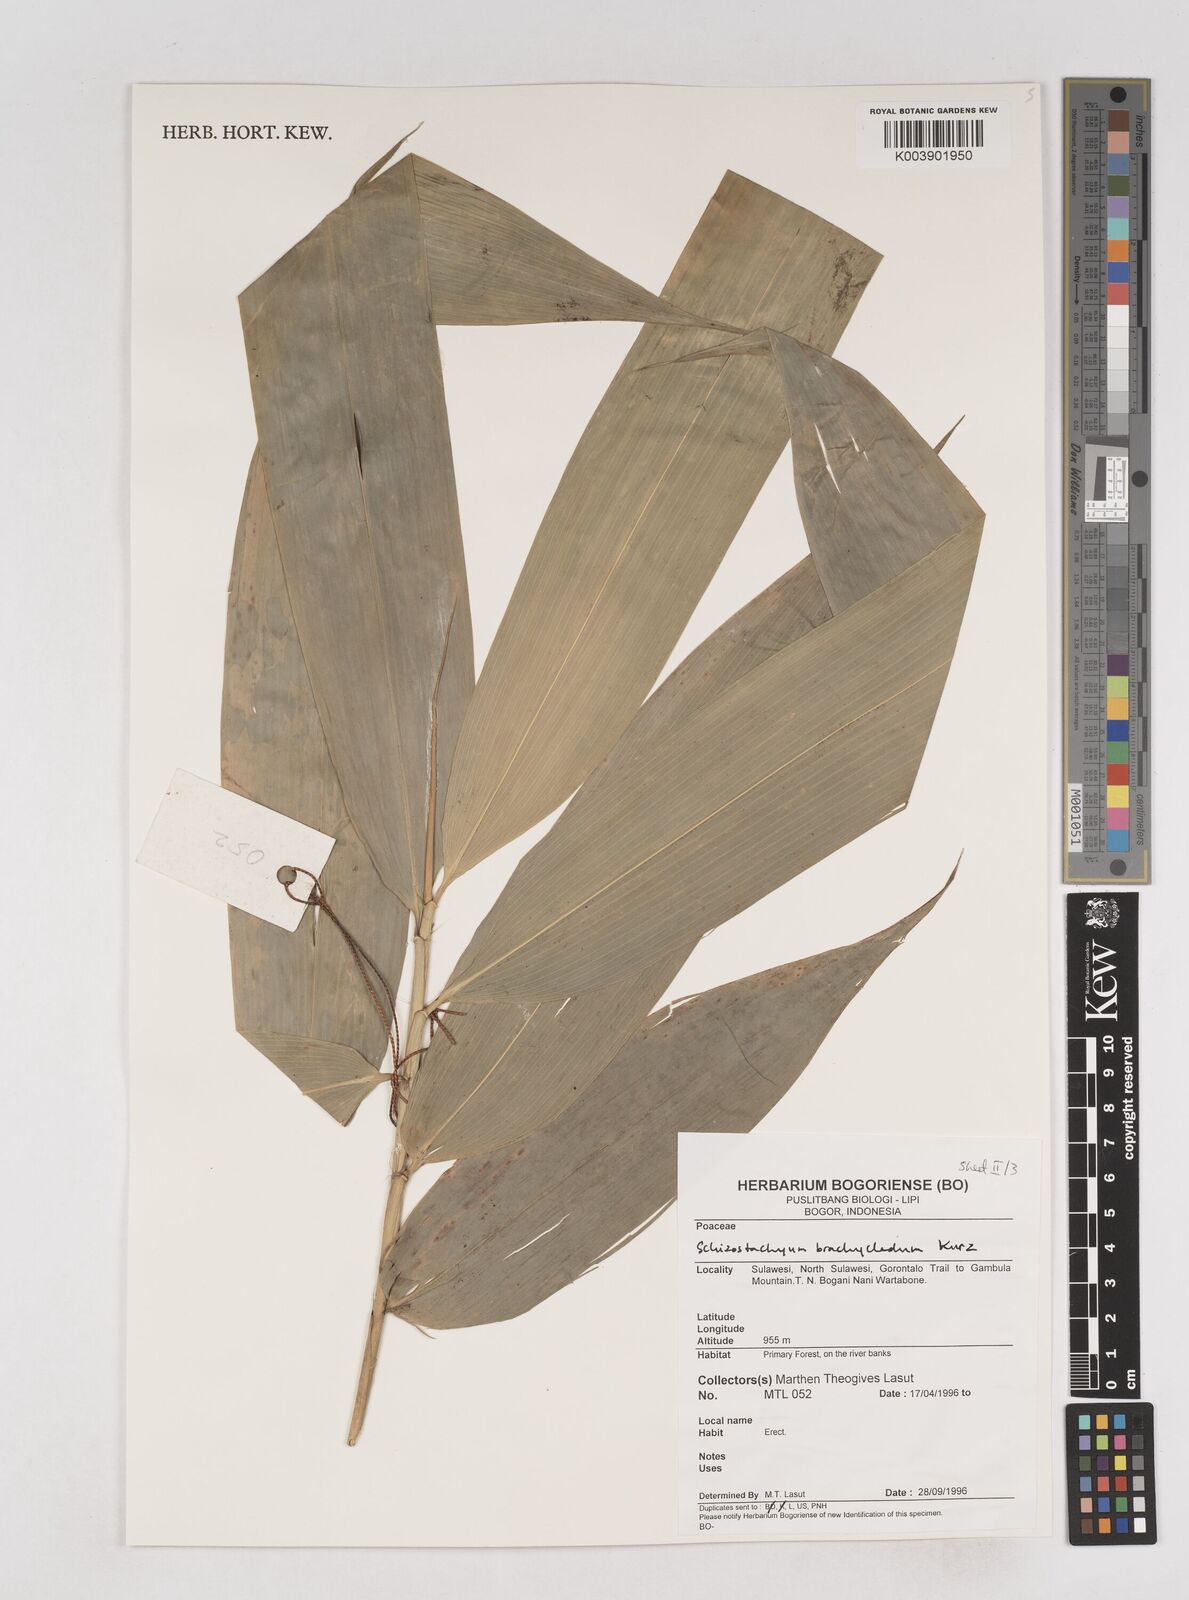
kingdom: Plantae
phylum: Tracheophyta
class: Liliopsida
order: Poales
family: Poaceae
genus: Schizostachyum
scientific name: Schizostachyum brachycladum
